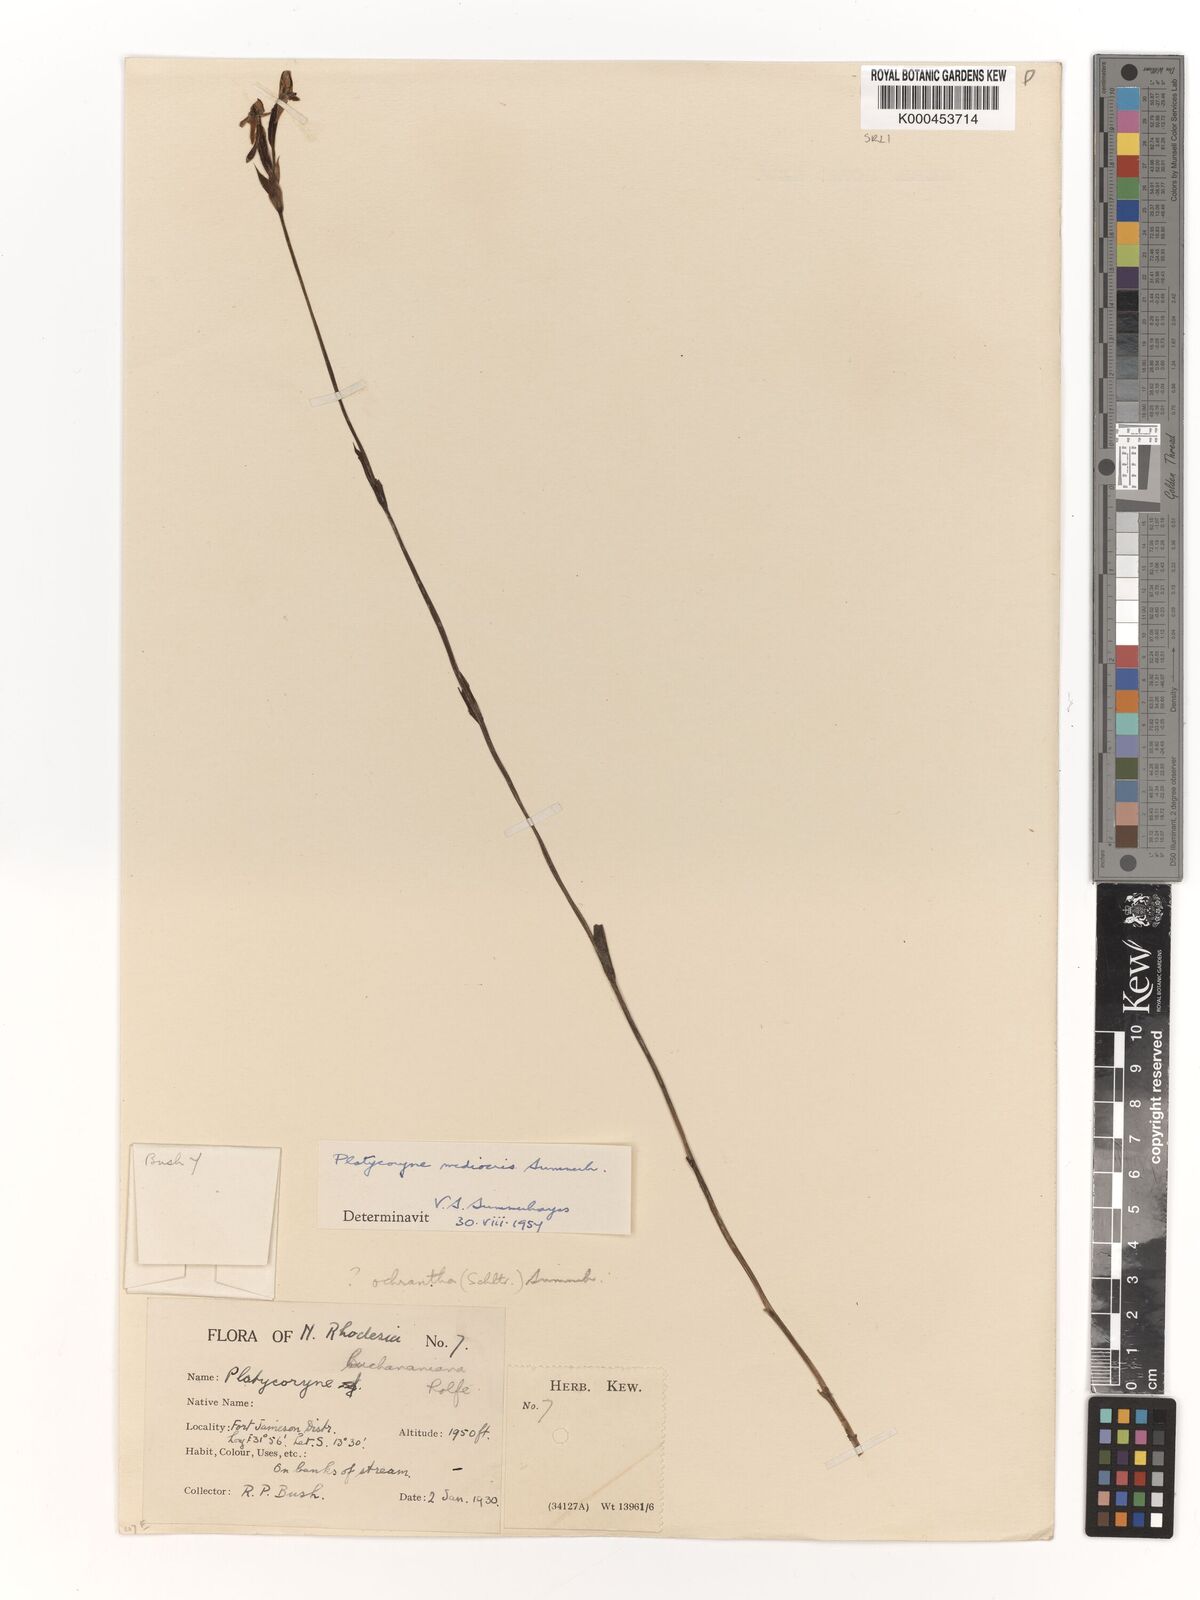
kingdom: Plantae
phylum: Tracheophyta
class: Liliopsida
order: Asparagales
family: Orchidaceae
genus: Platycoryne
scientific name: Platycoryne mediocris
